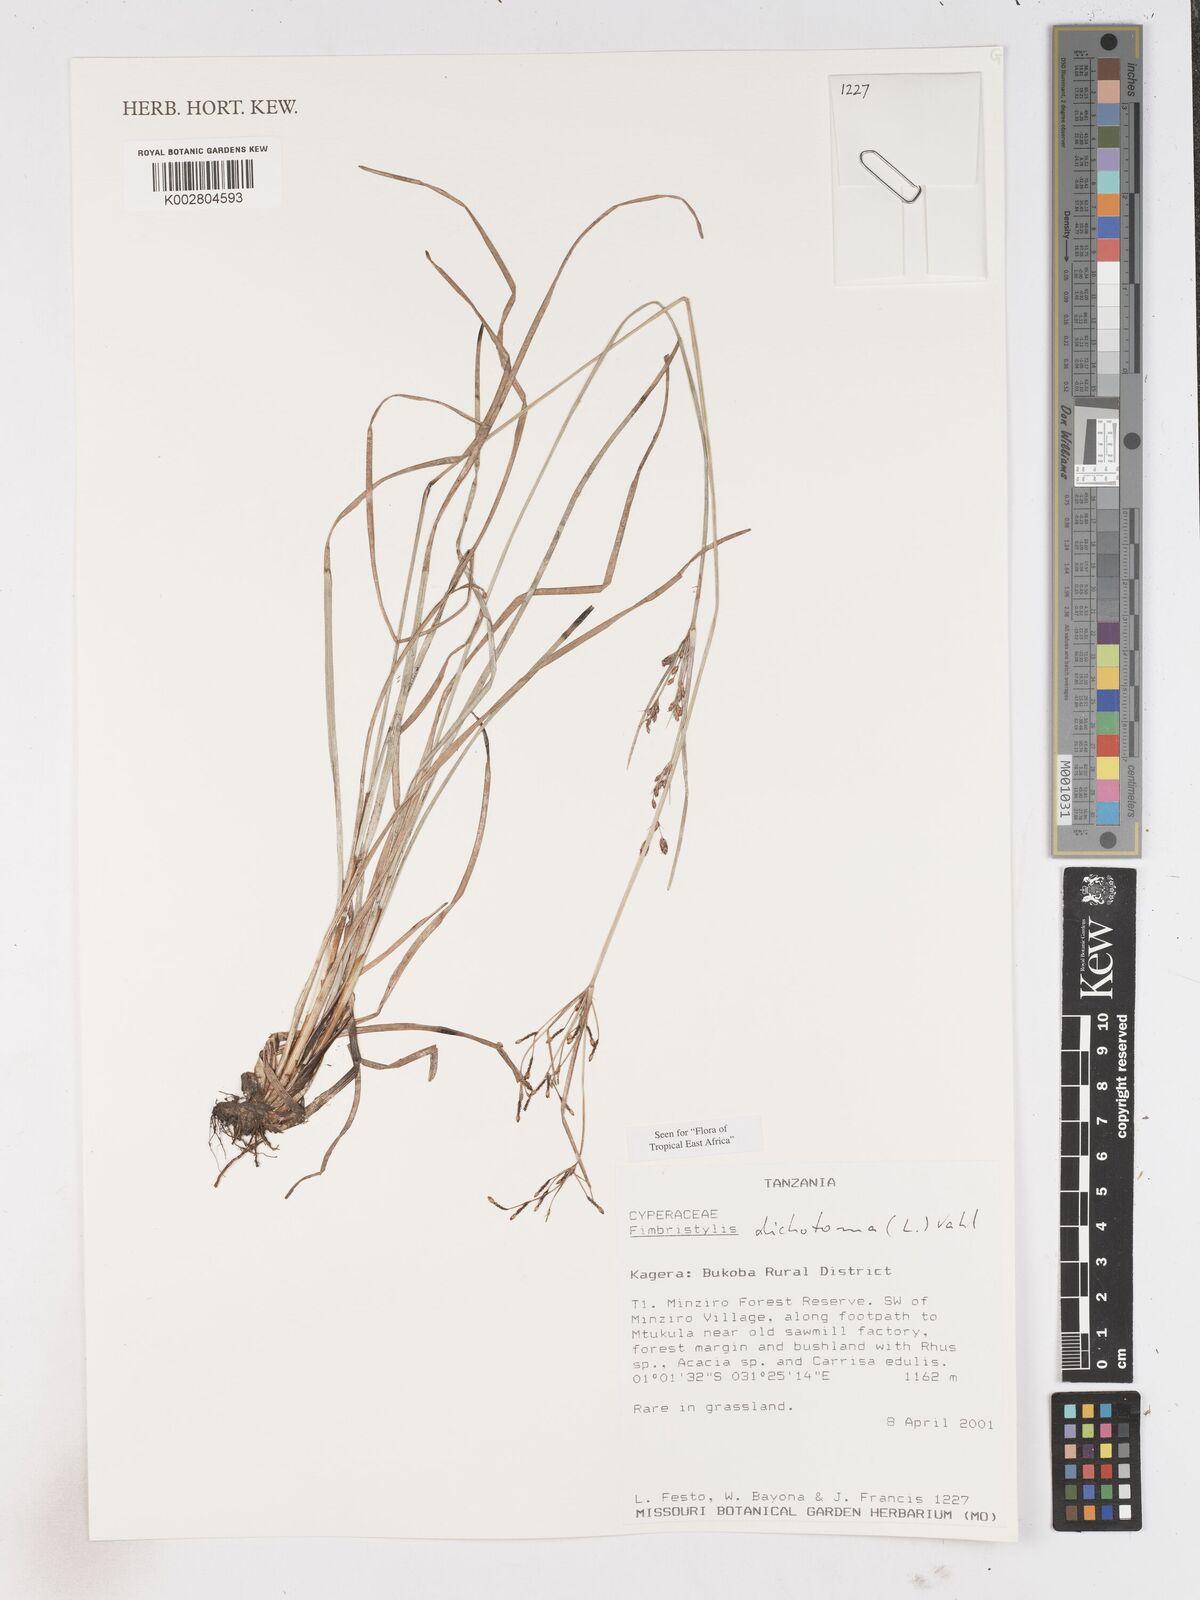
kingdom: Plantae
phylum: Tracheophyta
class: Liliopsida
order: Poales
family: Cyperaceae
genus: Fimbristylis
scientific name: Fimbristylis dichotoma
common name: Forked fimbry
